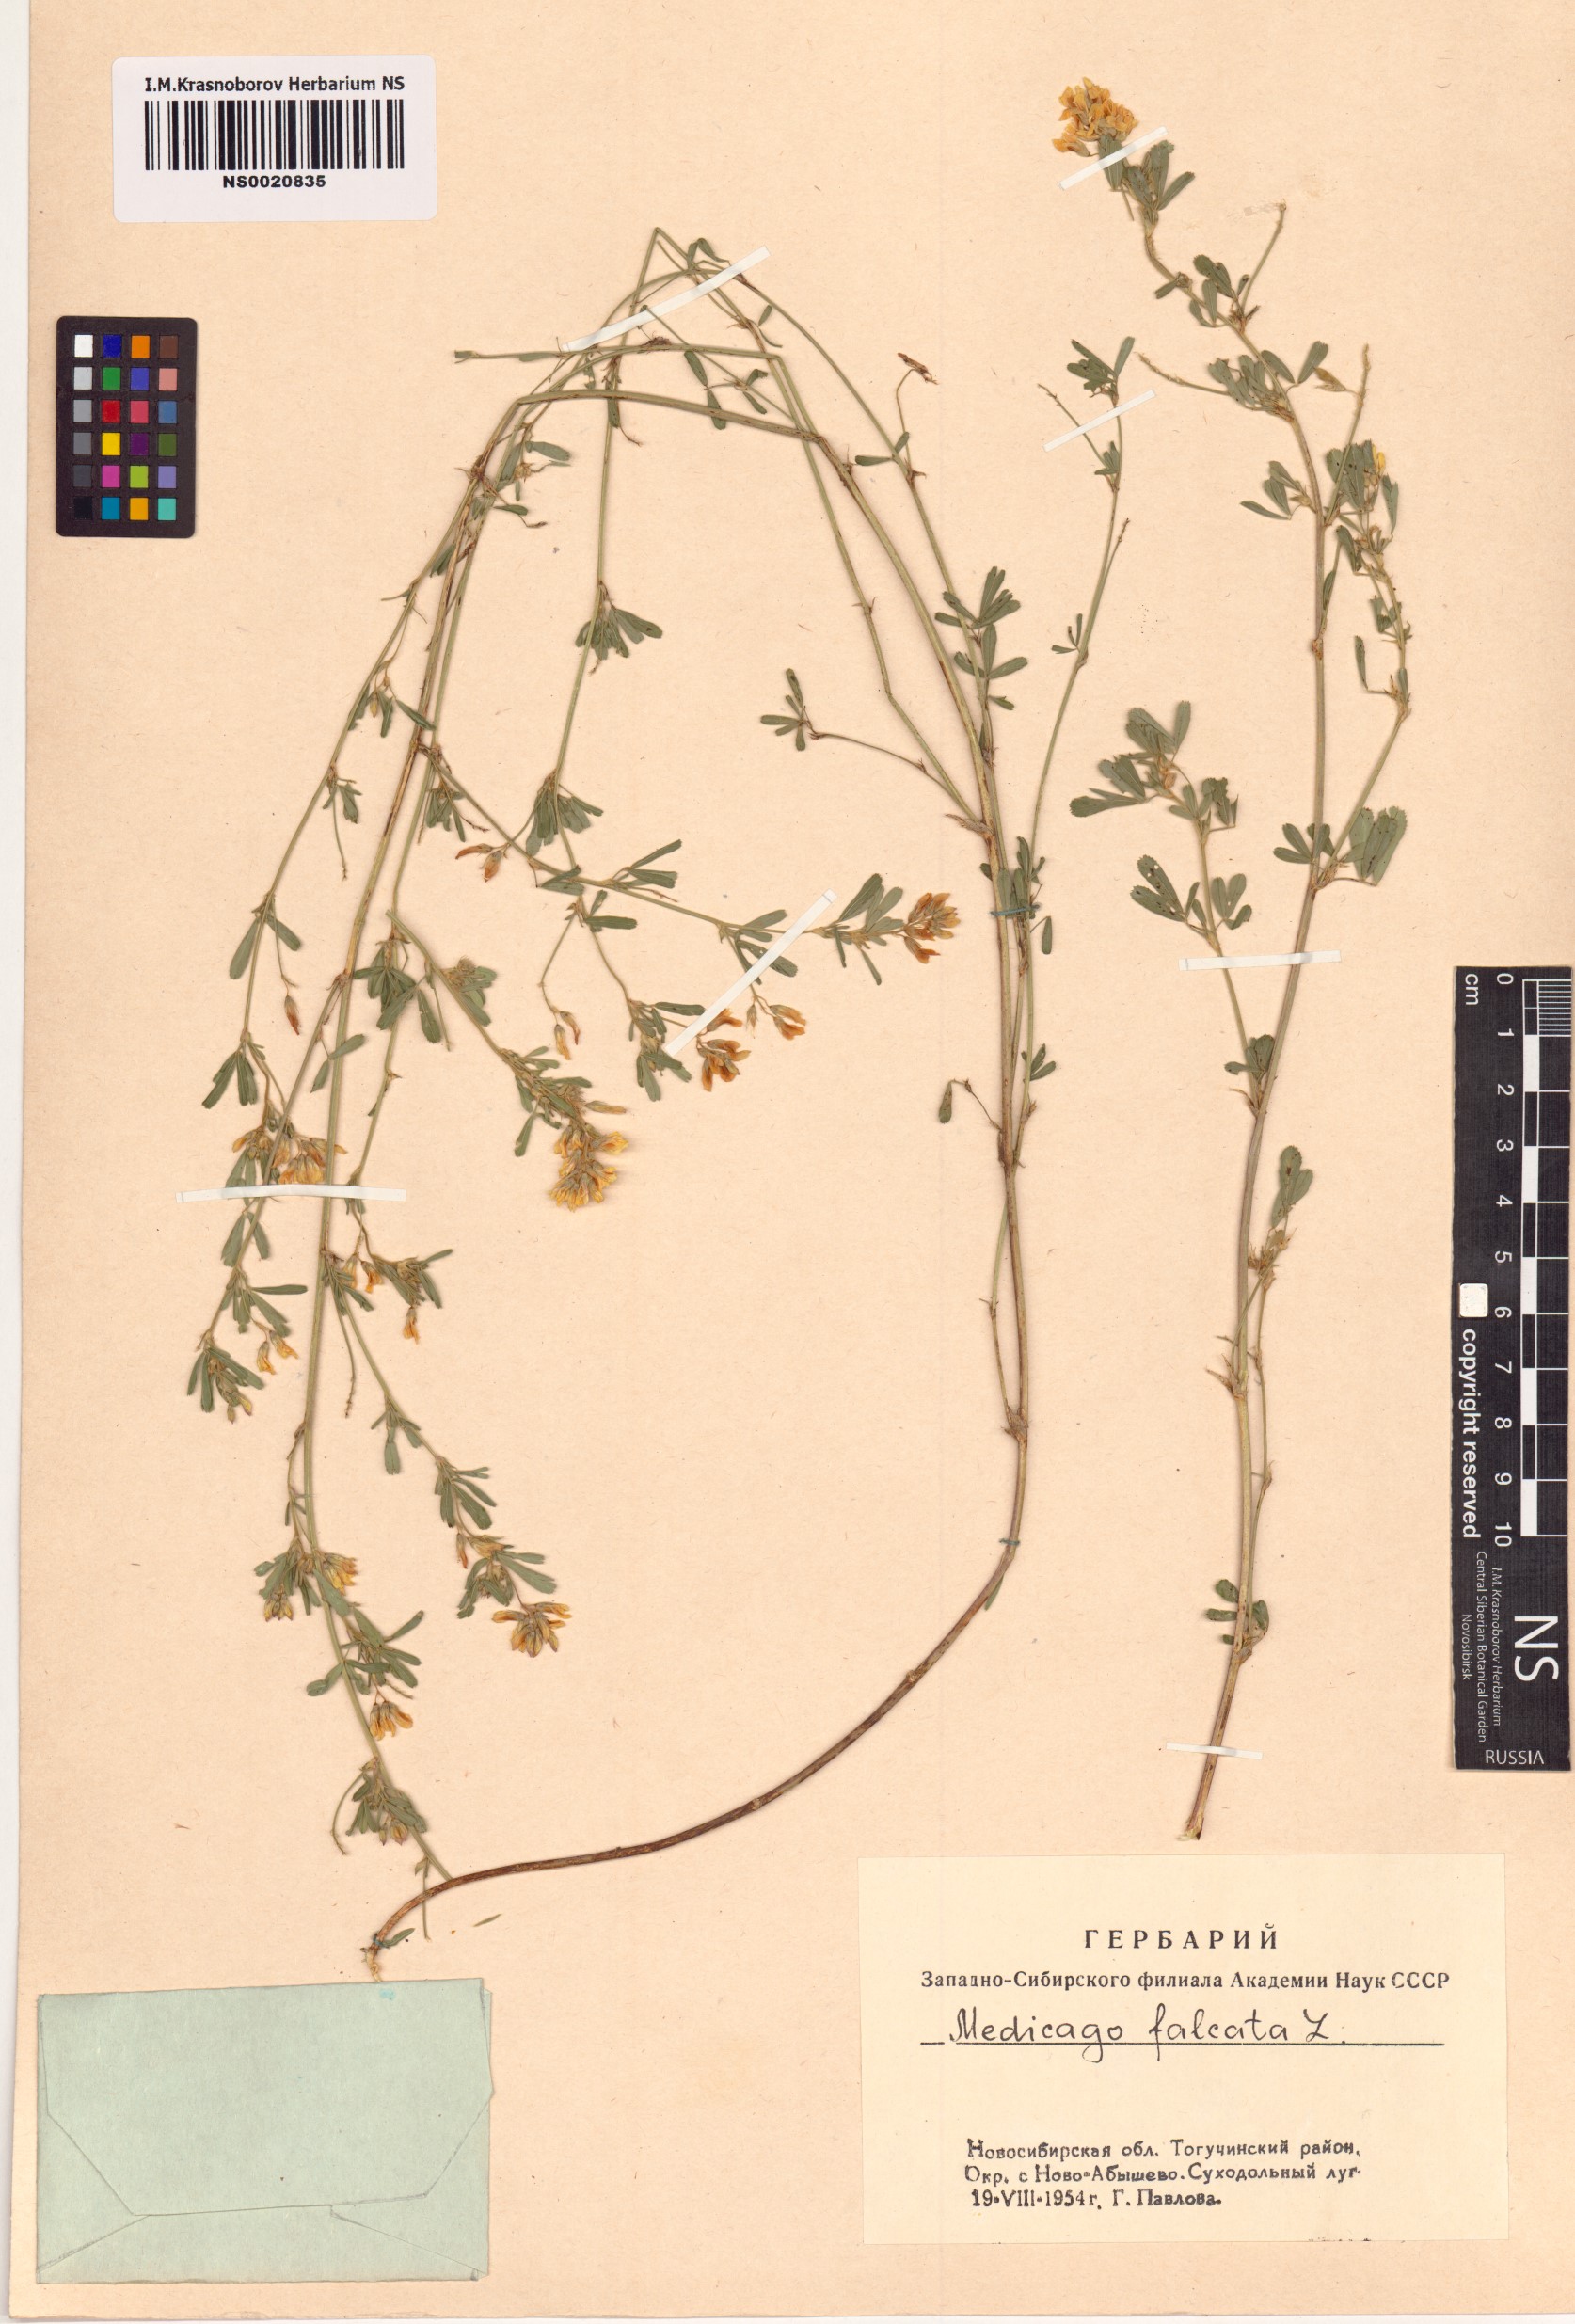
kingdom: Plantae
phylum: Tracheophyta
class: Magnoliopsida
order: Fabales
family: Fabaceae
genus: Medicago
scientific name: Medicago falcata
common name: Sickle medick
